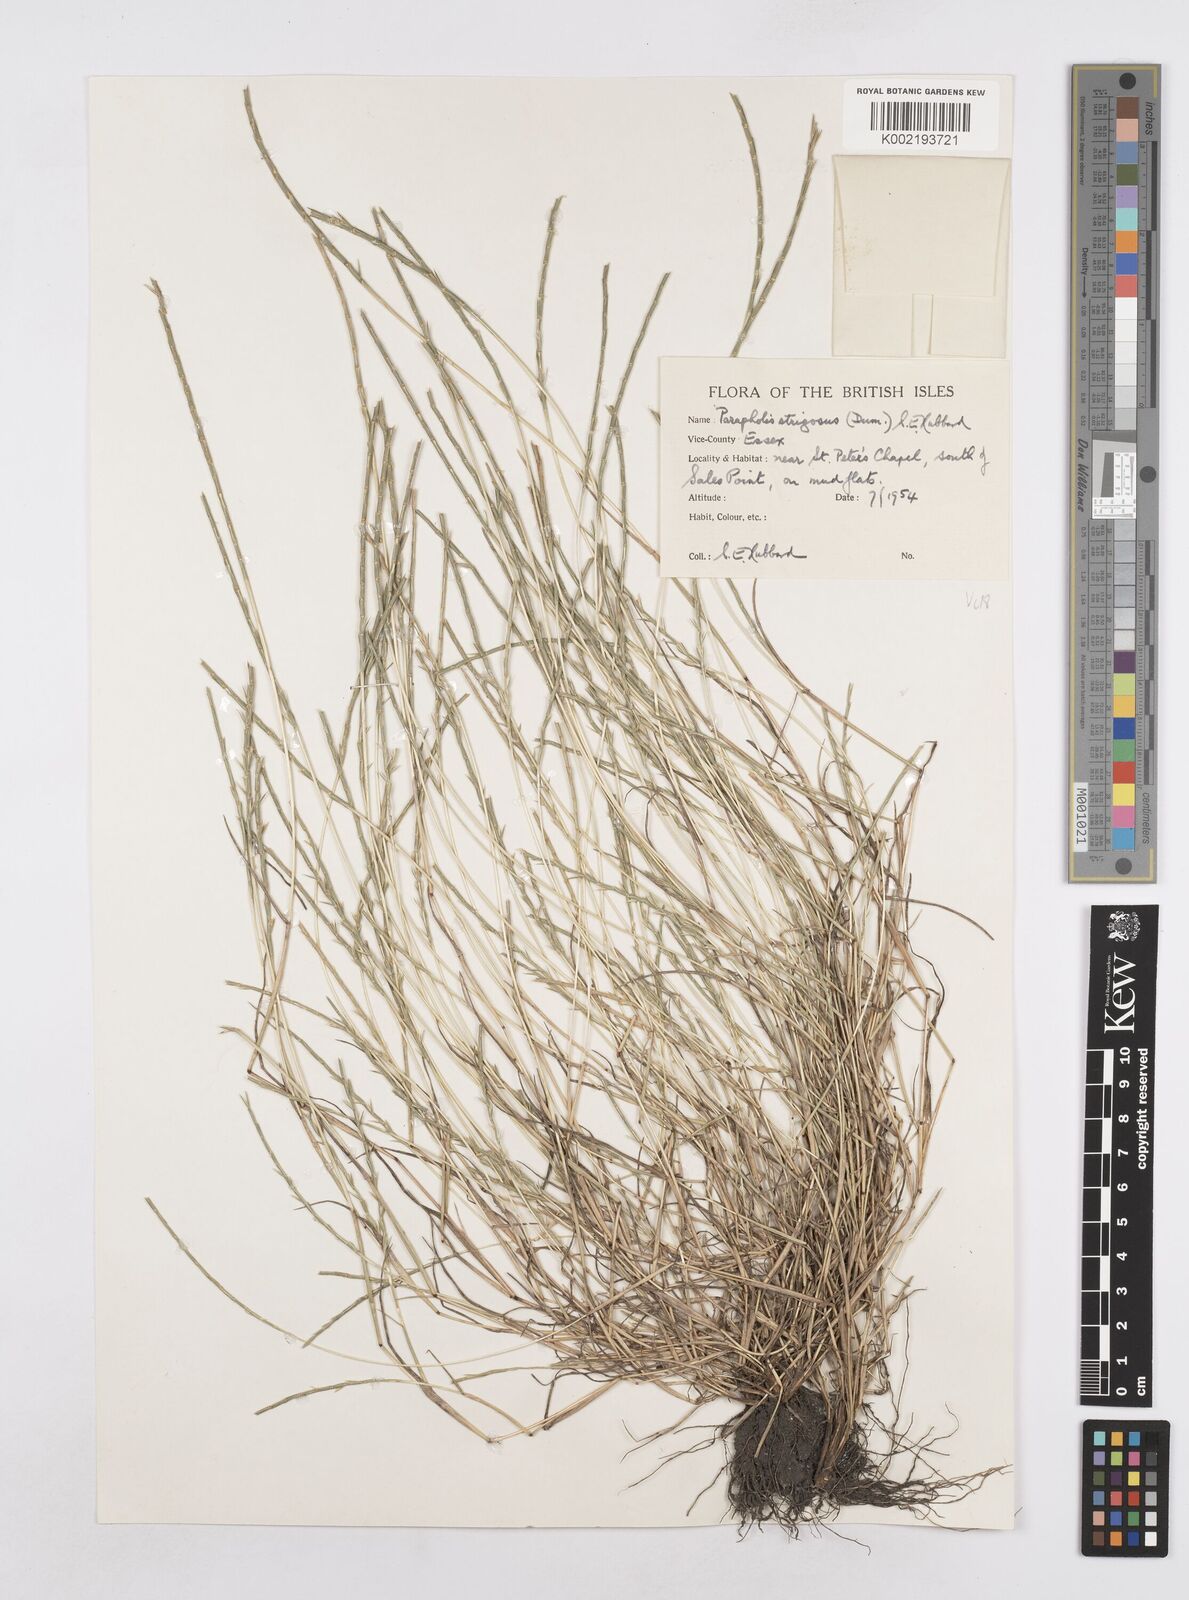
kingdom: Plantae
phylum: Tracheophyta
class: Liliopsida
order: Poales
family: Poaceae
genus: Parapholis
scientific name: Parapholis strigosa
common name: Hard-grass
